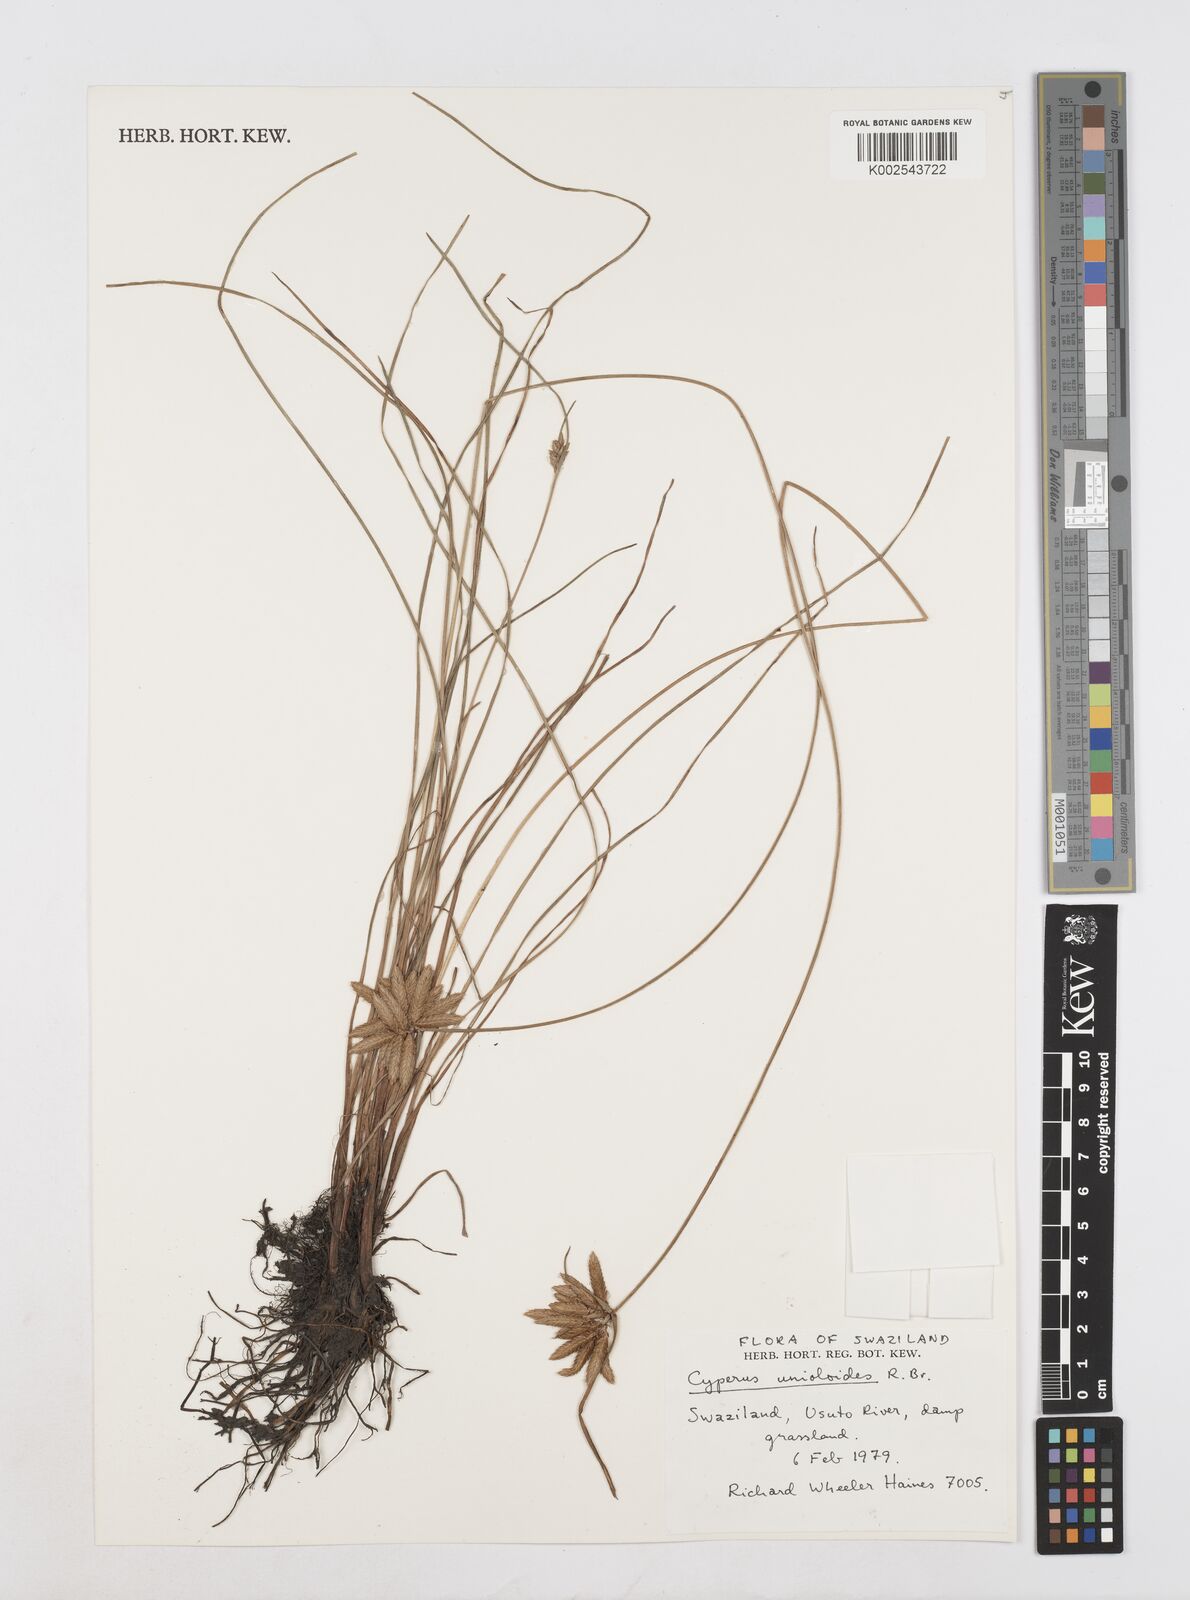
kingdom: Plantae
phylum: Tracheophyta
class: Liliopsida
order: Poales
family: Cyperaceae
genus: Cyperus
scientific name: Cyperus unioloides
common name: Uniola flatsedge
